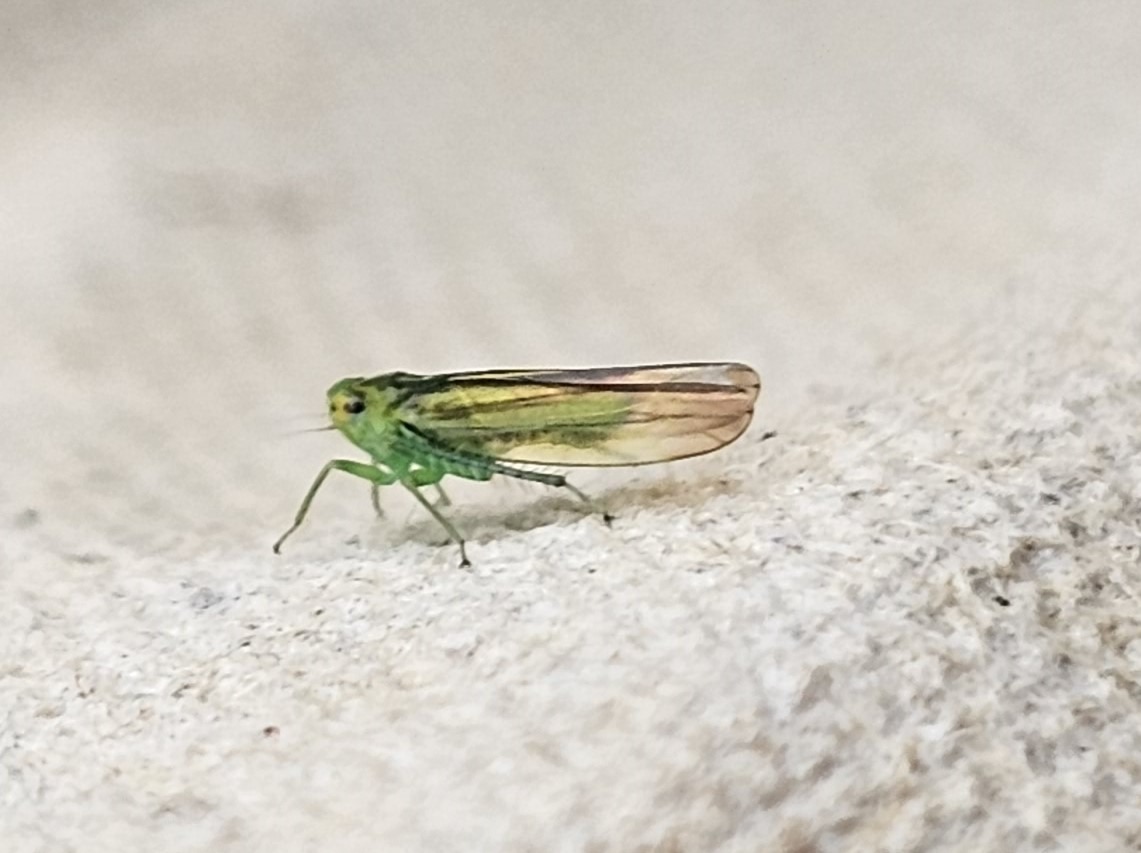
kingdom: Animalia
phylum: Arthropoda
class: Insecta
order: Hemiptera
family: Cicadellidae
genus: Kybos
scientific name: Kybos
